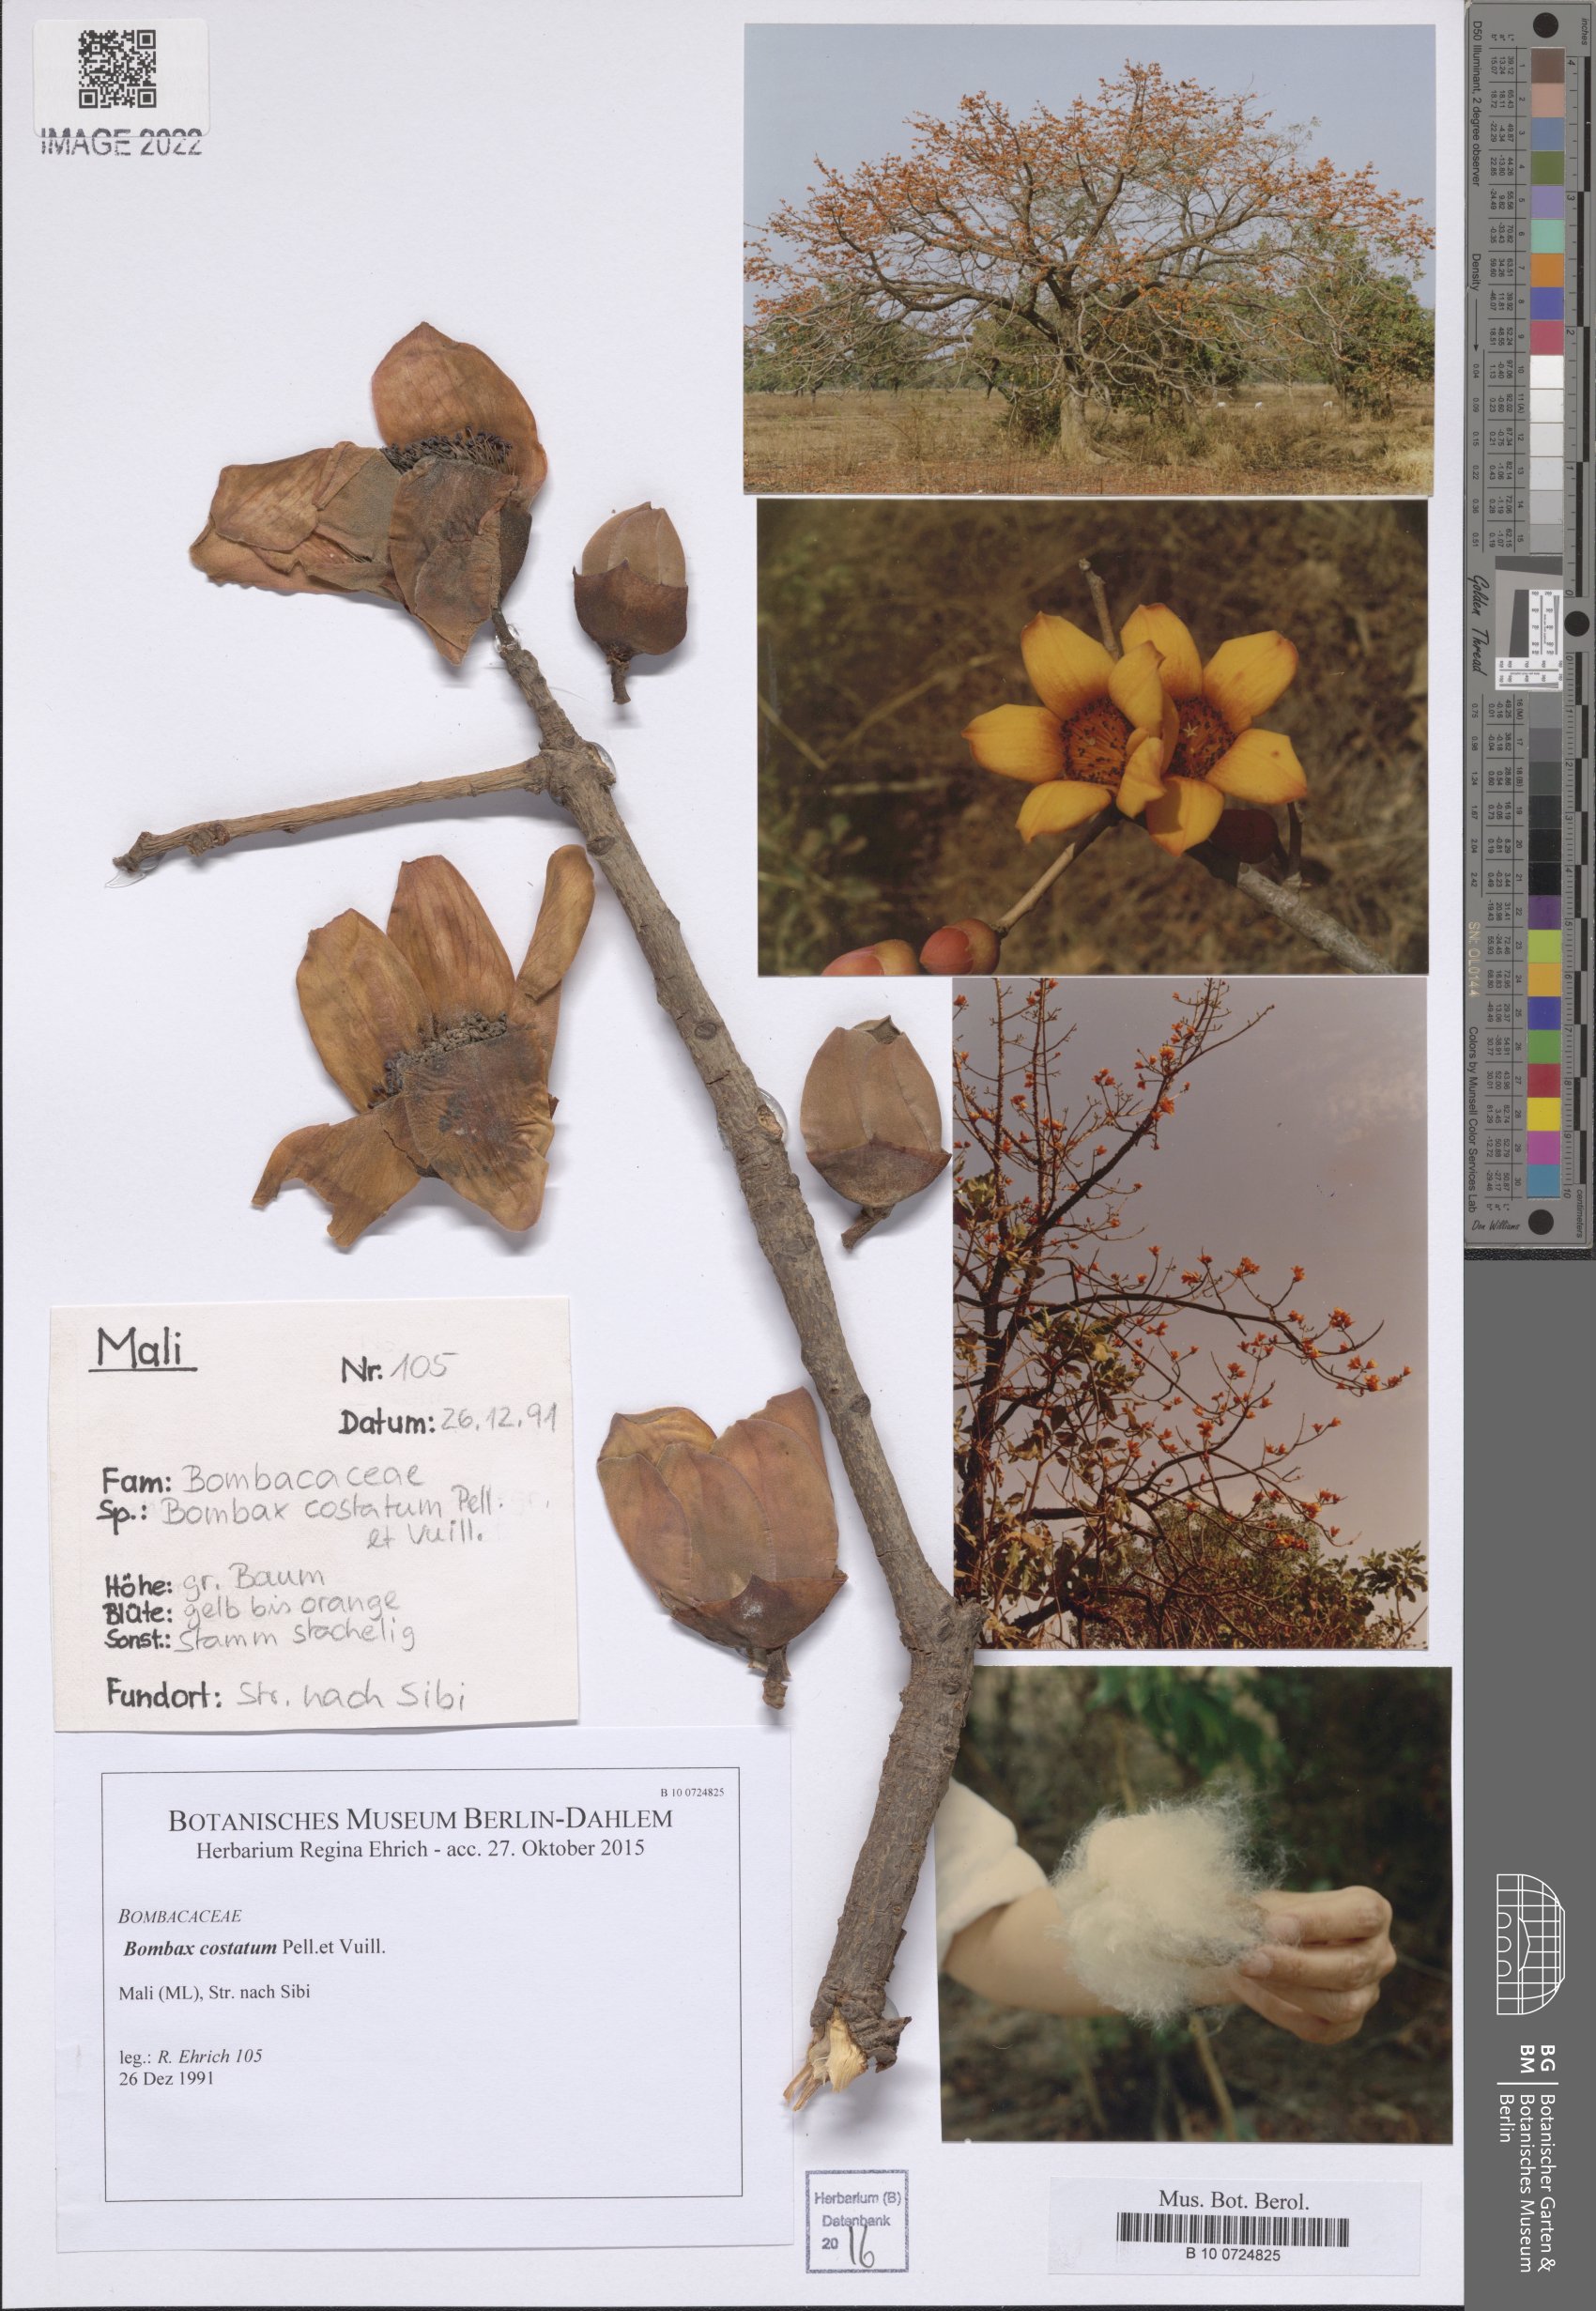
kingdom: Plantae
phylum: Tracheophyta
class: Magnoliopsida
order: Malvales
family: Malvaceae
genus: Bombax
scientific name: Bombax costatum
